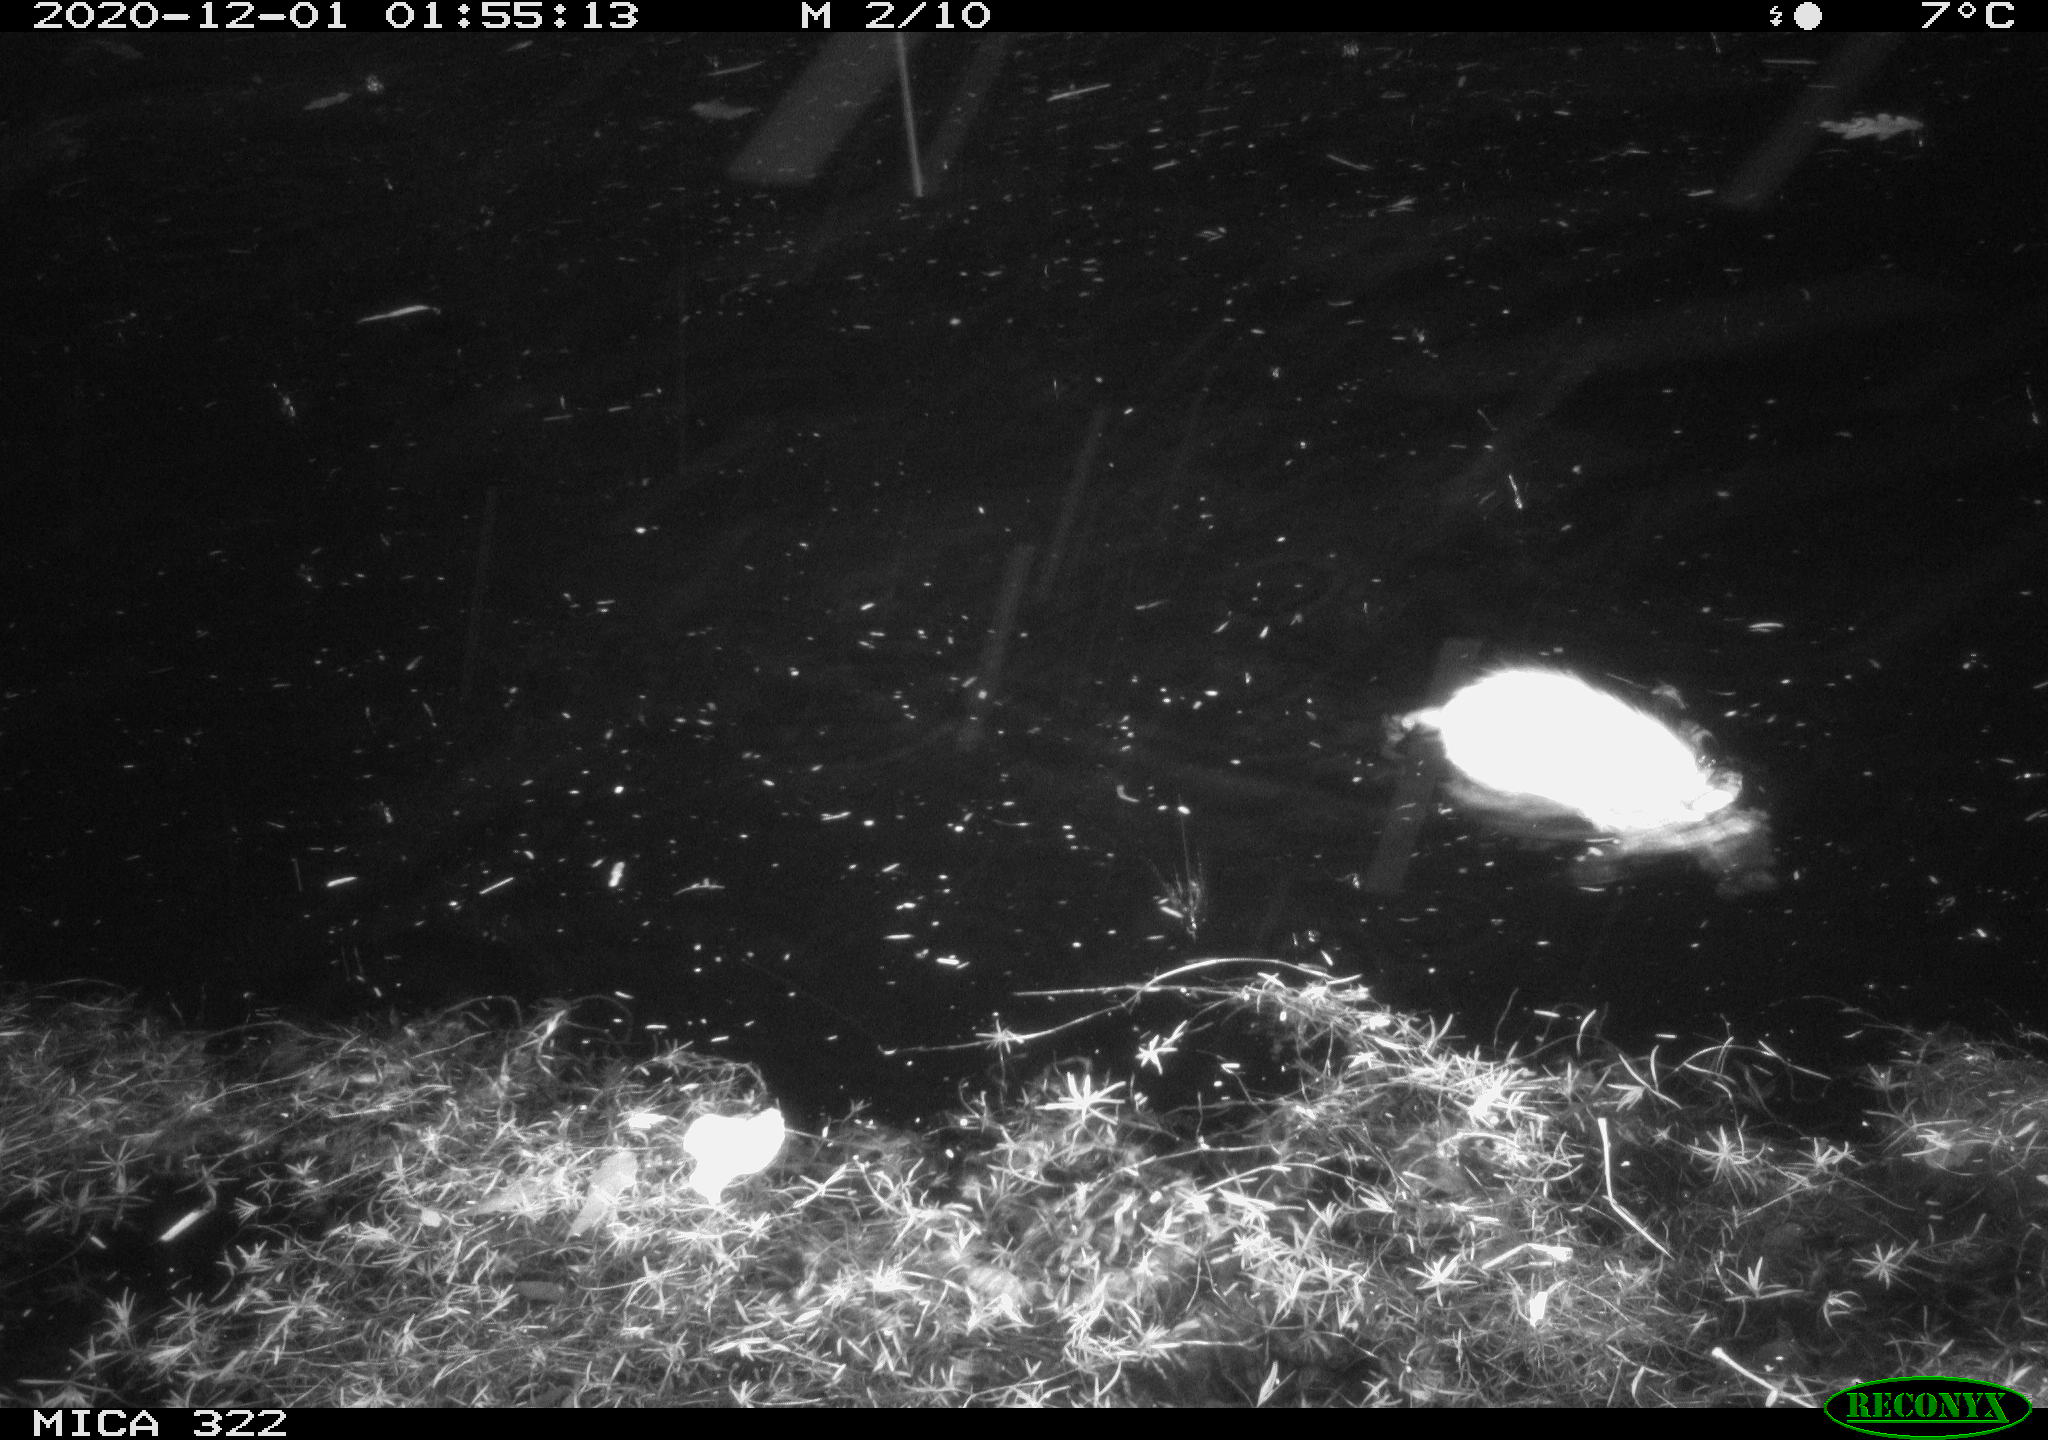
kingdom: Animalia
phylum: Chordata
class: Mammalia
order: Rodentia
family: Cricetidae
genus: Ondatra
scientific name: Ondatra zibethicus
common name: Muskrat
